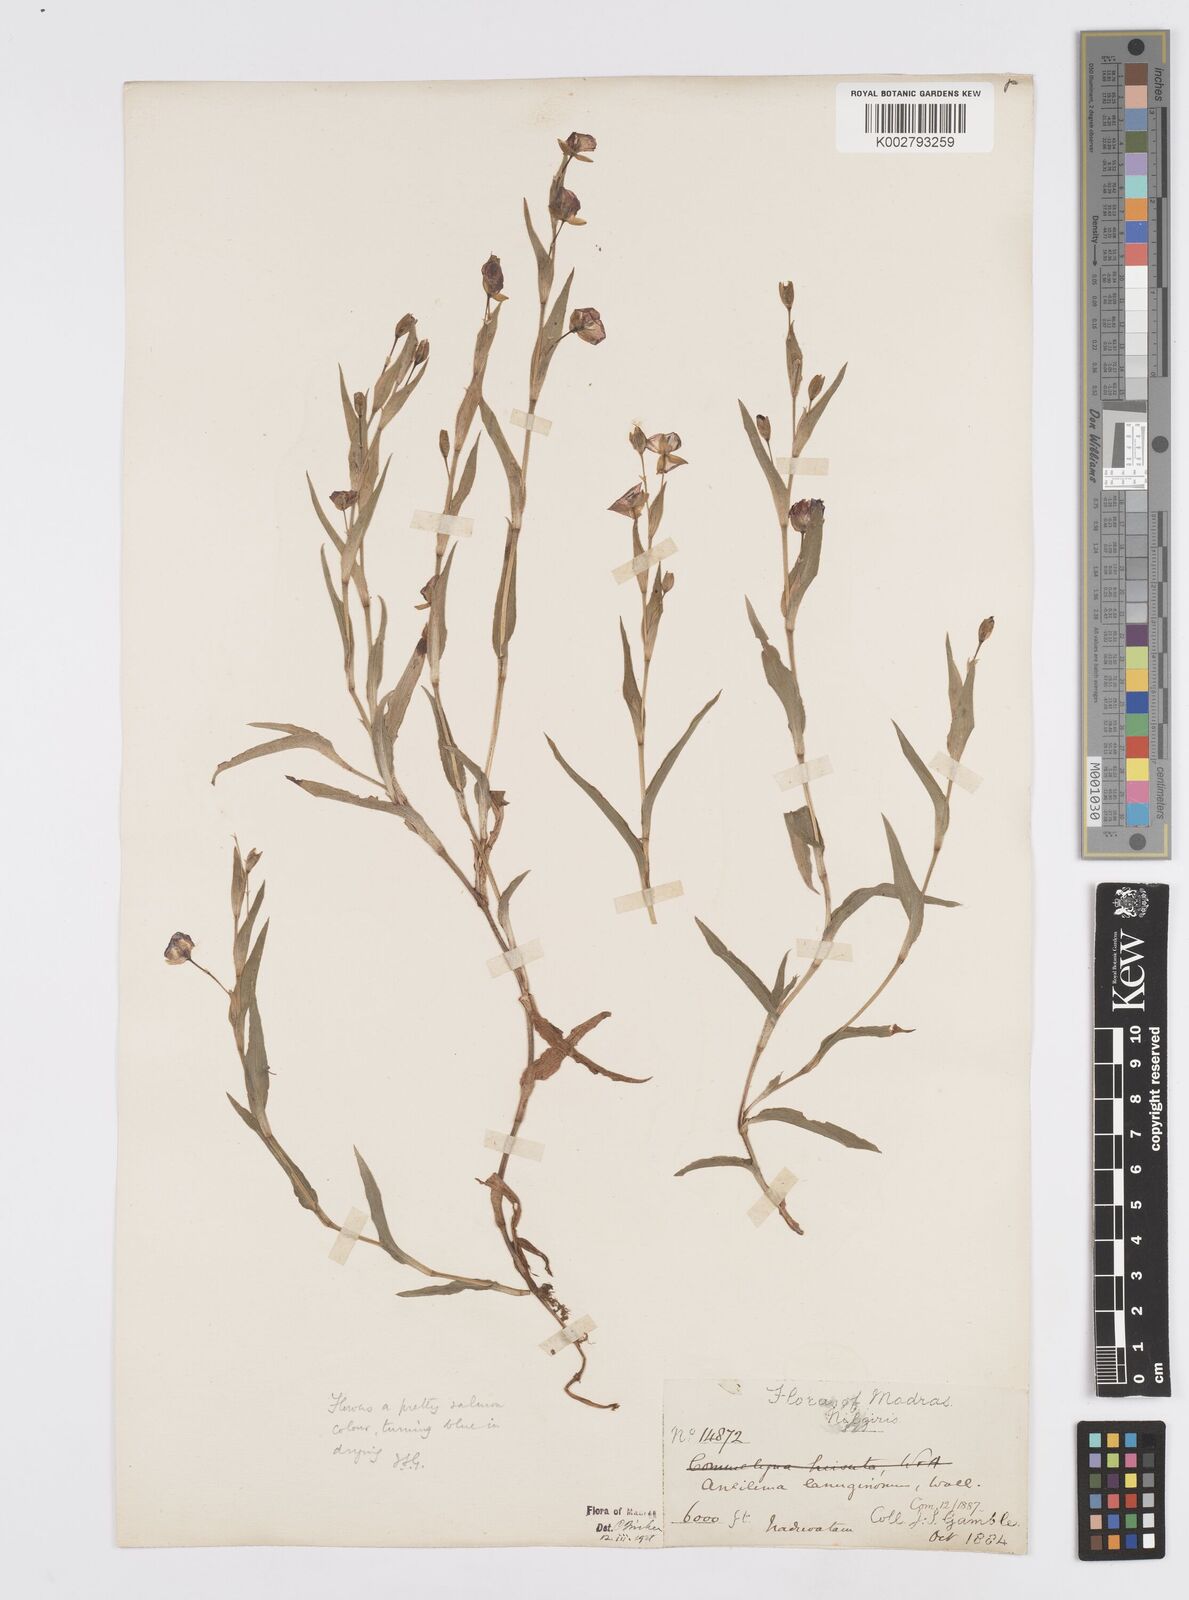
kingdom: Plantae
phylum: Tracheophyta
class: Liliopsida
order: Commelinales
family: Commelinaceae
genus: Murdannia
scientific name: Murdannia lanuginosa
